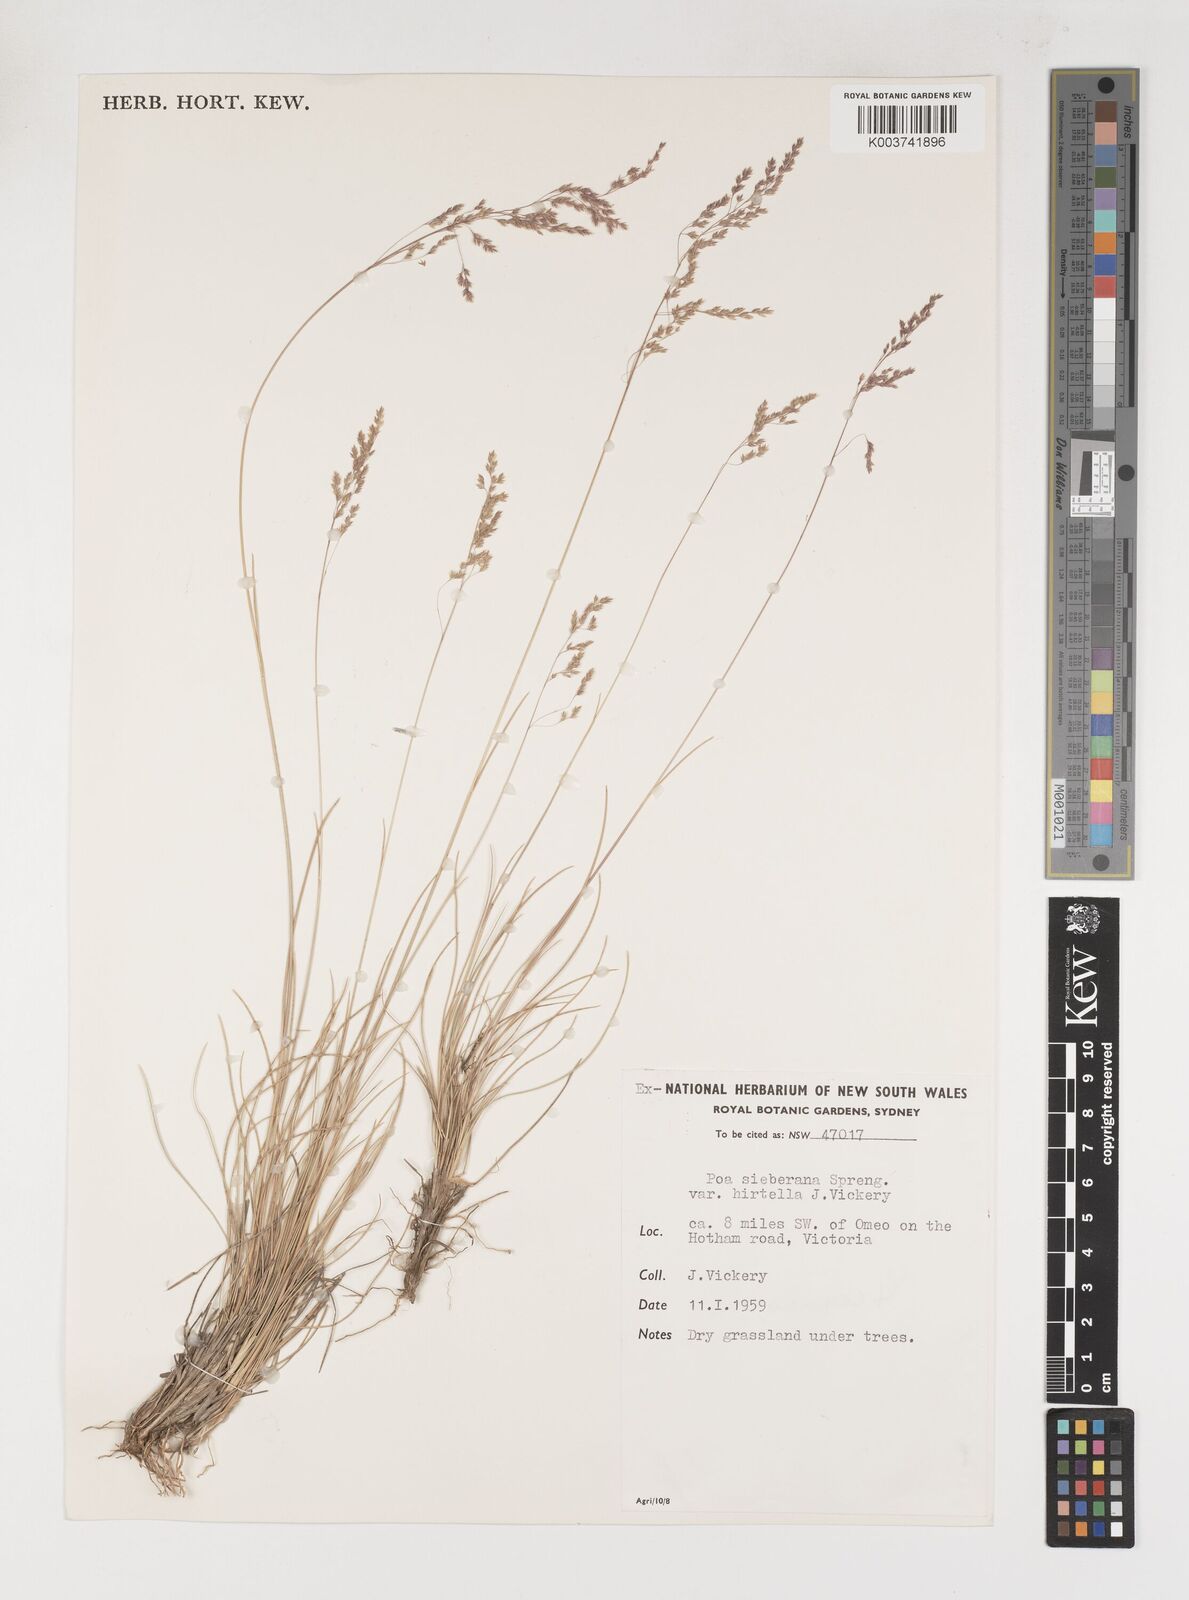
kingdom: Plantae
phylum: Tracheophyta
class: Liliopsida
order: Poales
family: Poaceae
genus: Poa
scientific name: Poa sieberiana
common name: Tussock poa
